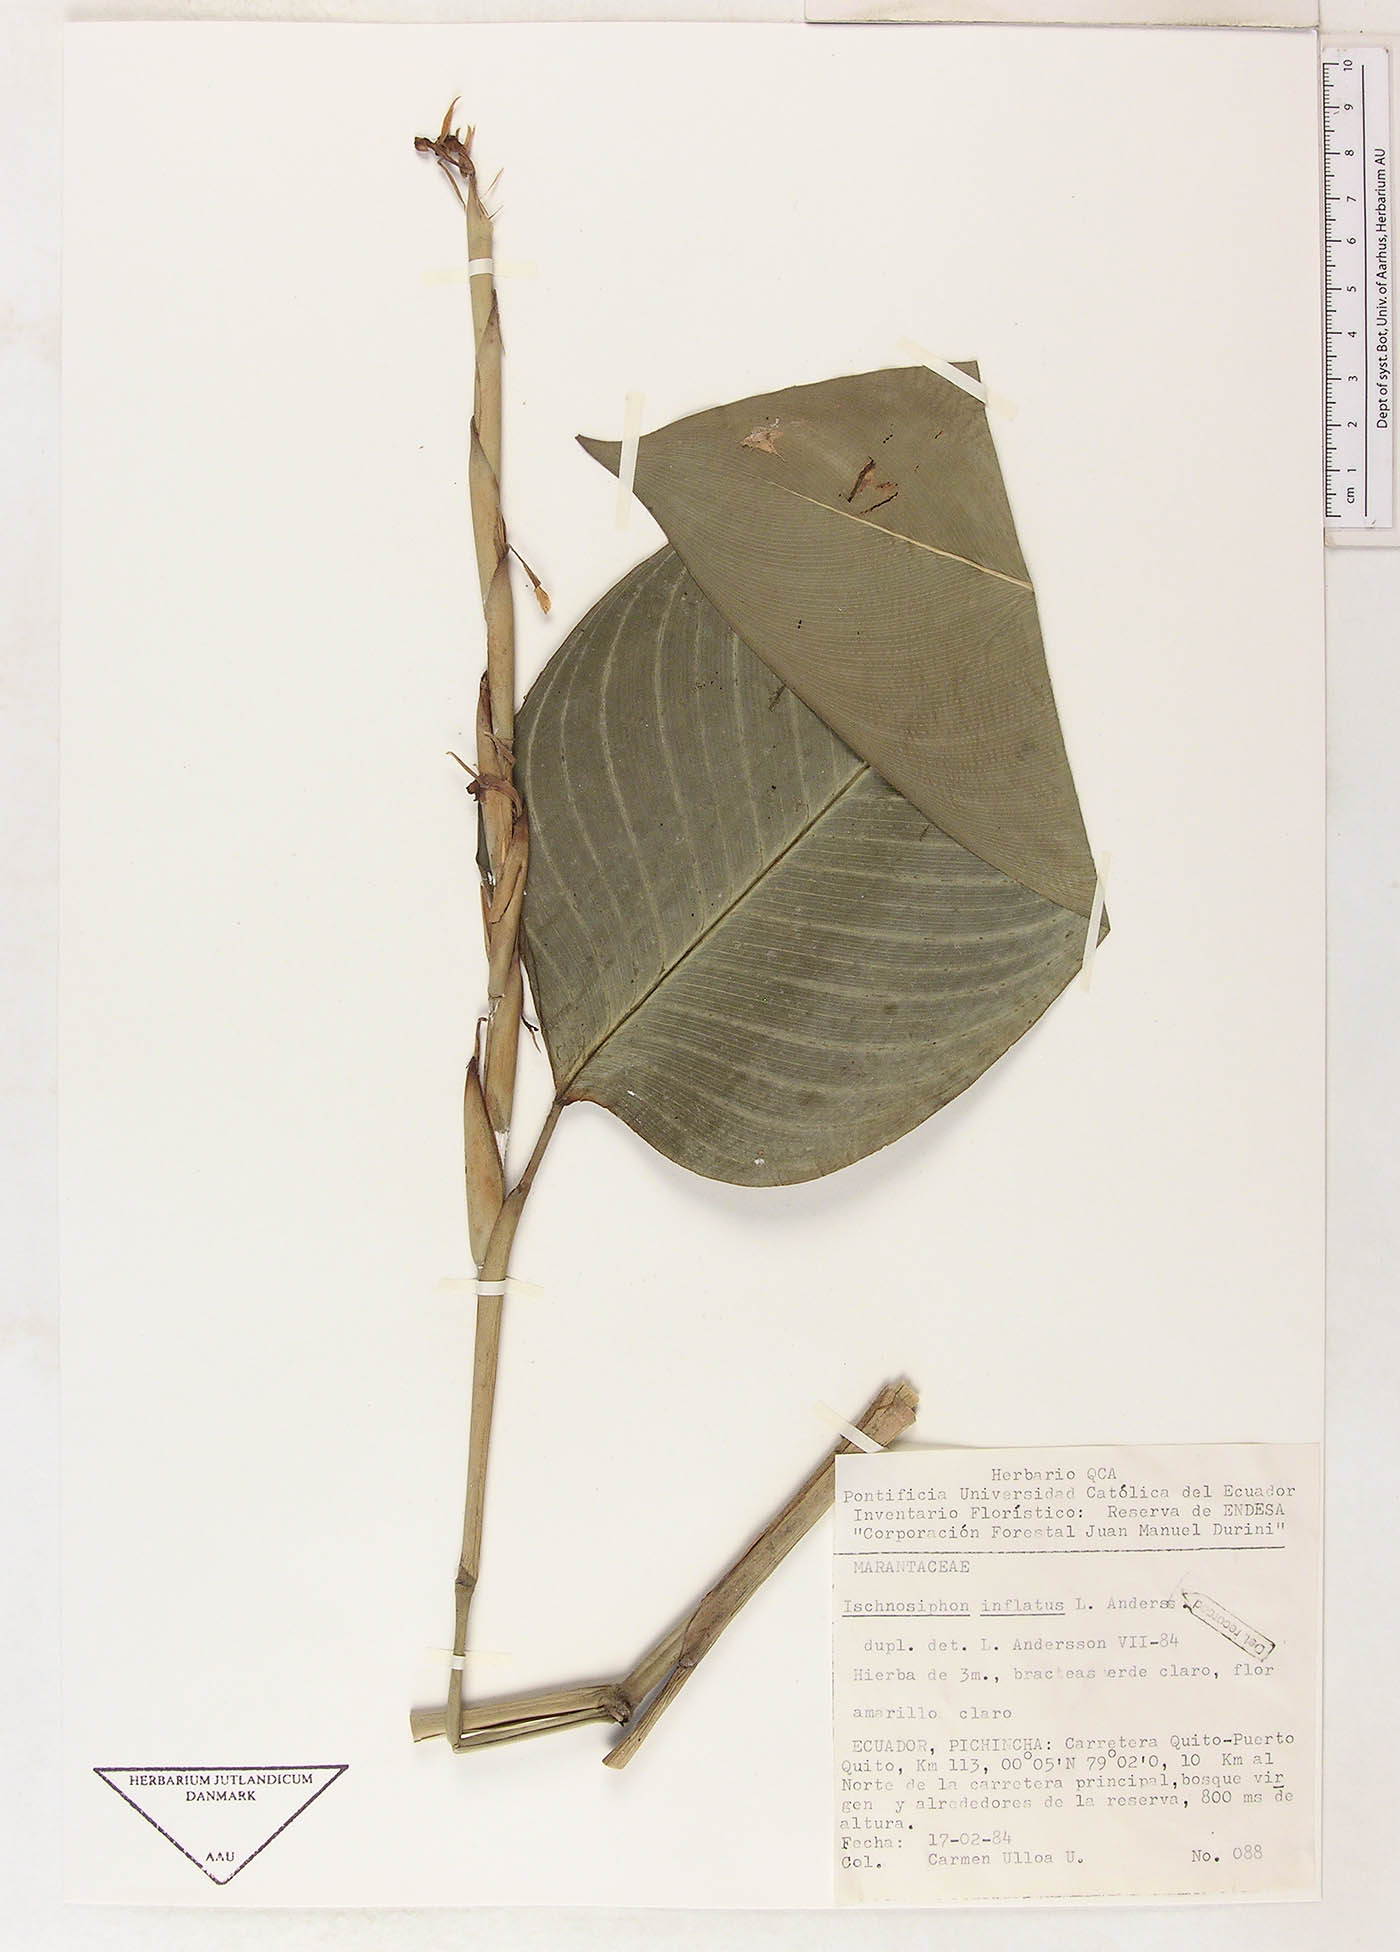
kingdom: Plantae
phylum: Tracheophyta
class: Liliopsida
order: Zingiberales
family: Marantaceae
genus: Ischnosiphon
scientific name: Ischnosiphon inflatus
